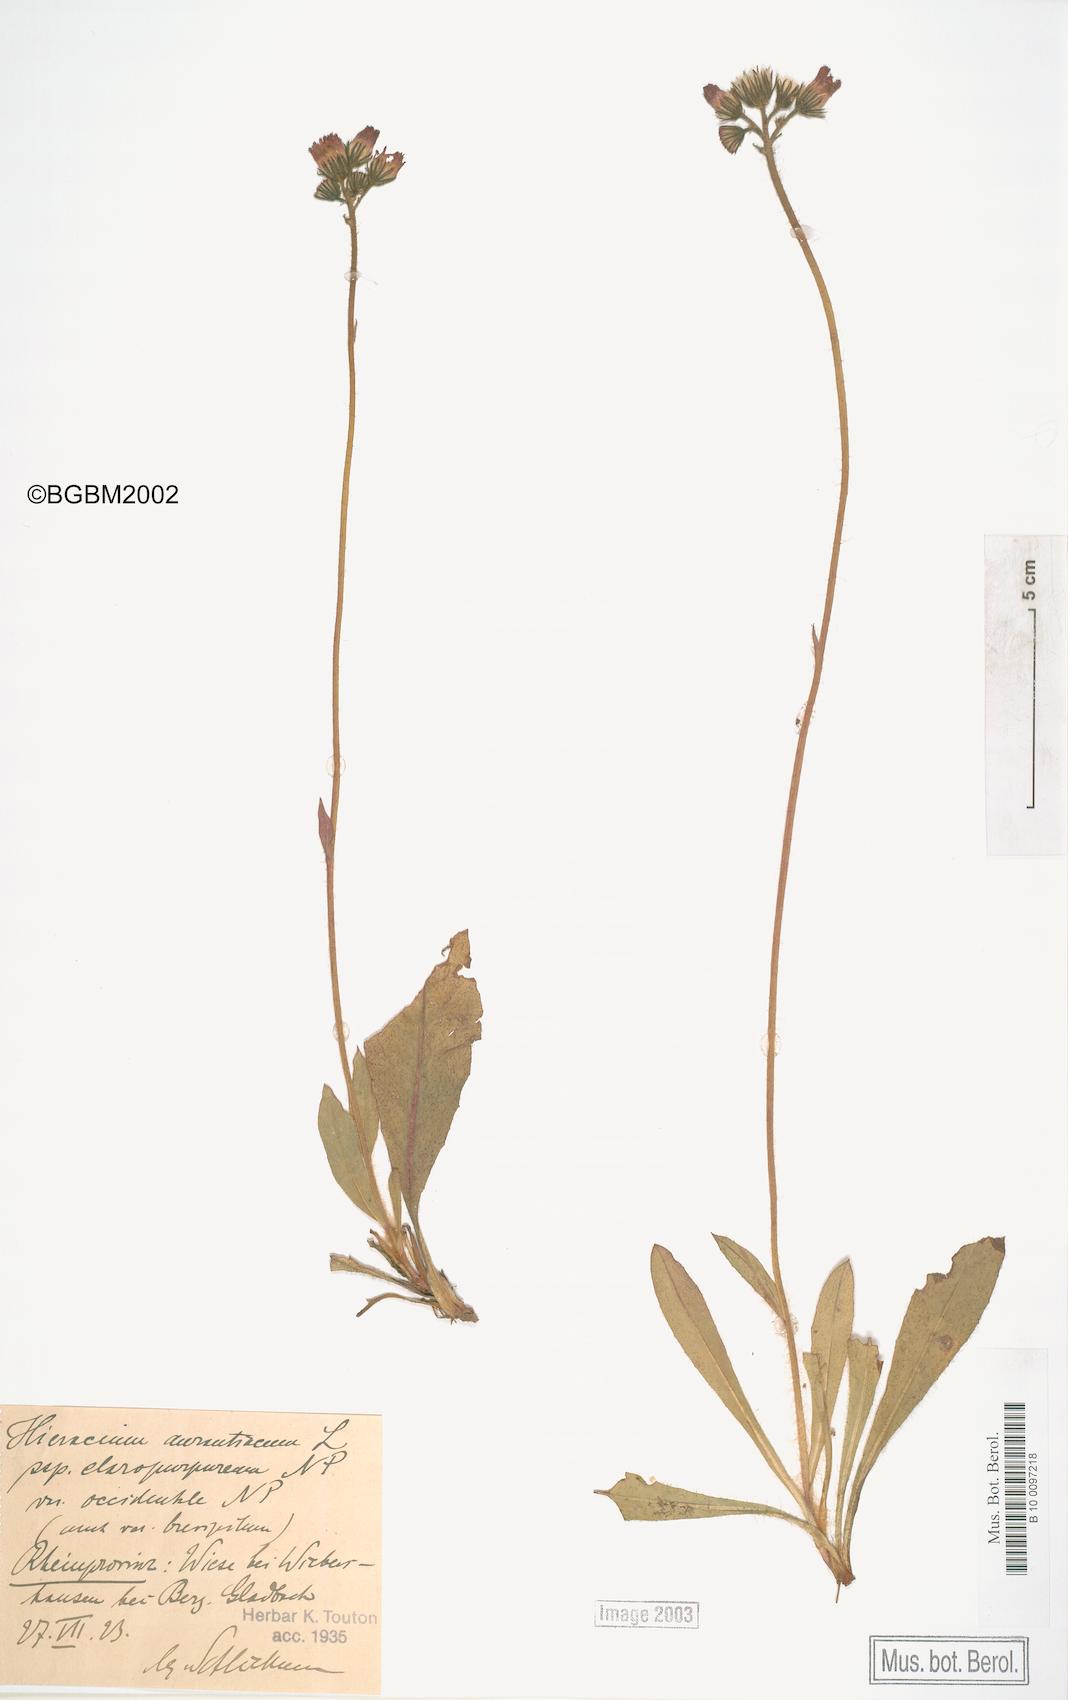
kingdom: Plantae
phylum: Tracheophyta
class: Magnoliopsida
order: Asterales
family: Asteraceae
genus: Pilosella
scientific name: Pilosella aurantiaca
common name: Fox-and-cubs
